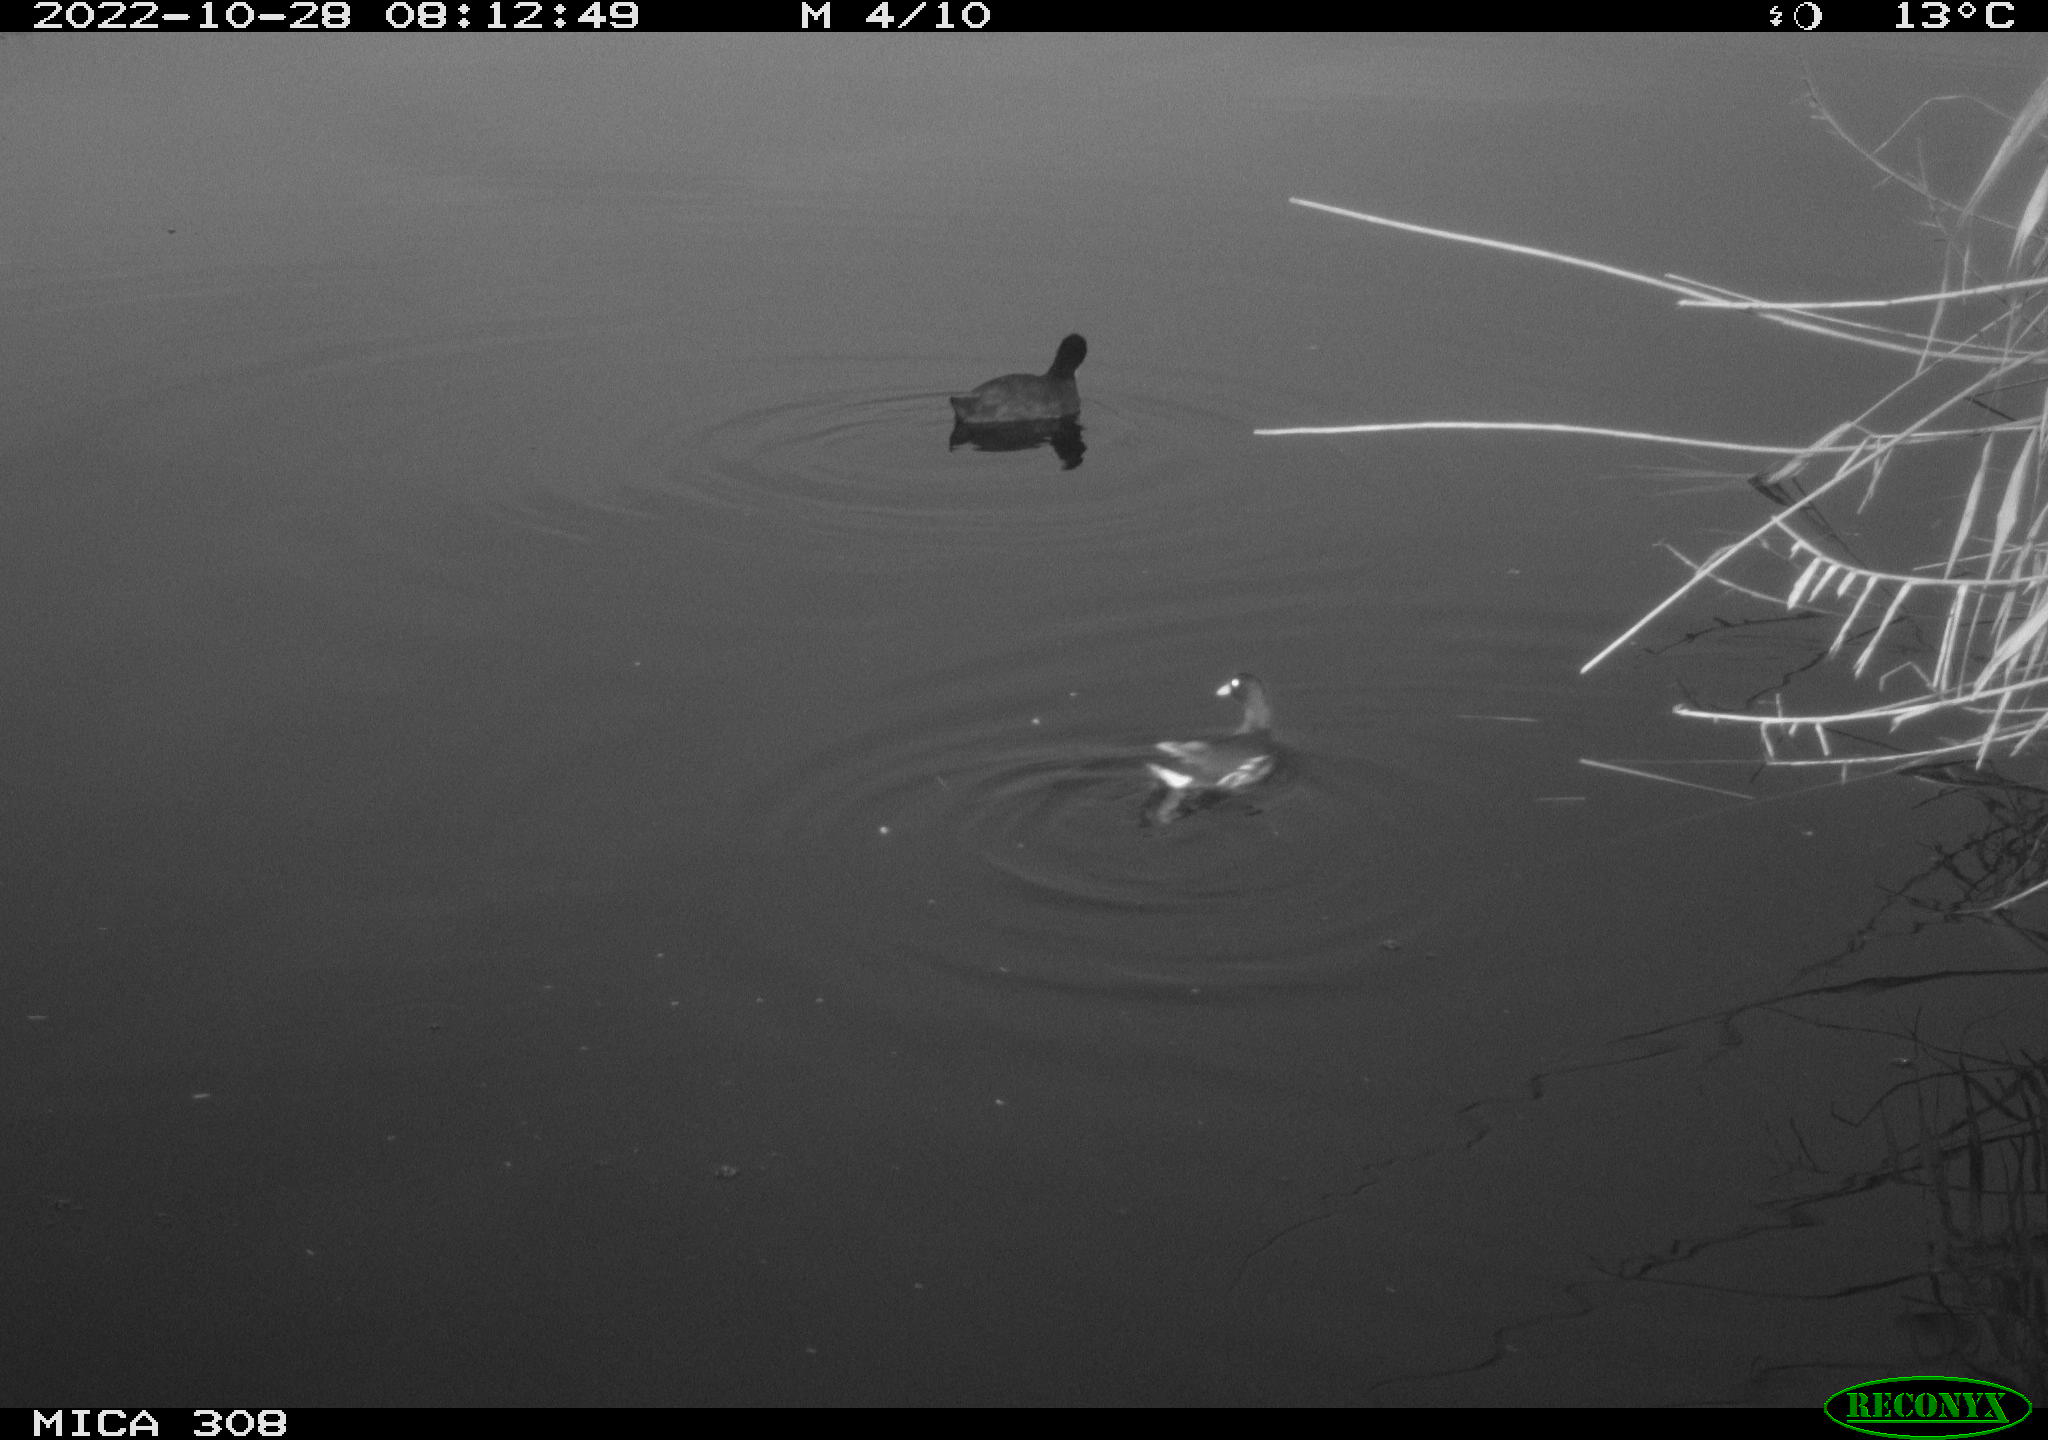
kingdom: Animalia
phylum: Chordata
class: Aves
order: Gruiformes
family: Rallidae
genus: Fulica
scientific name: Fulica atra
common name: Eurasian coot
